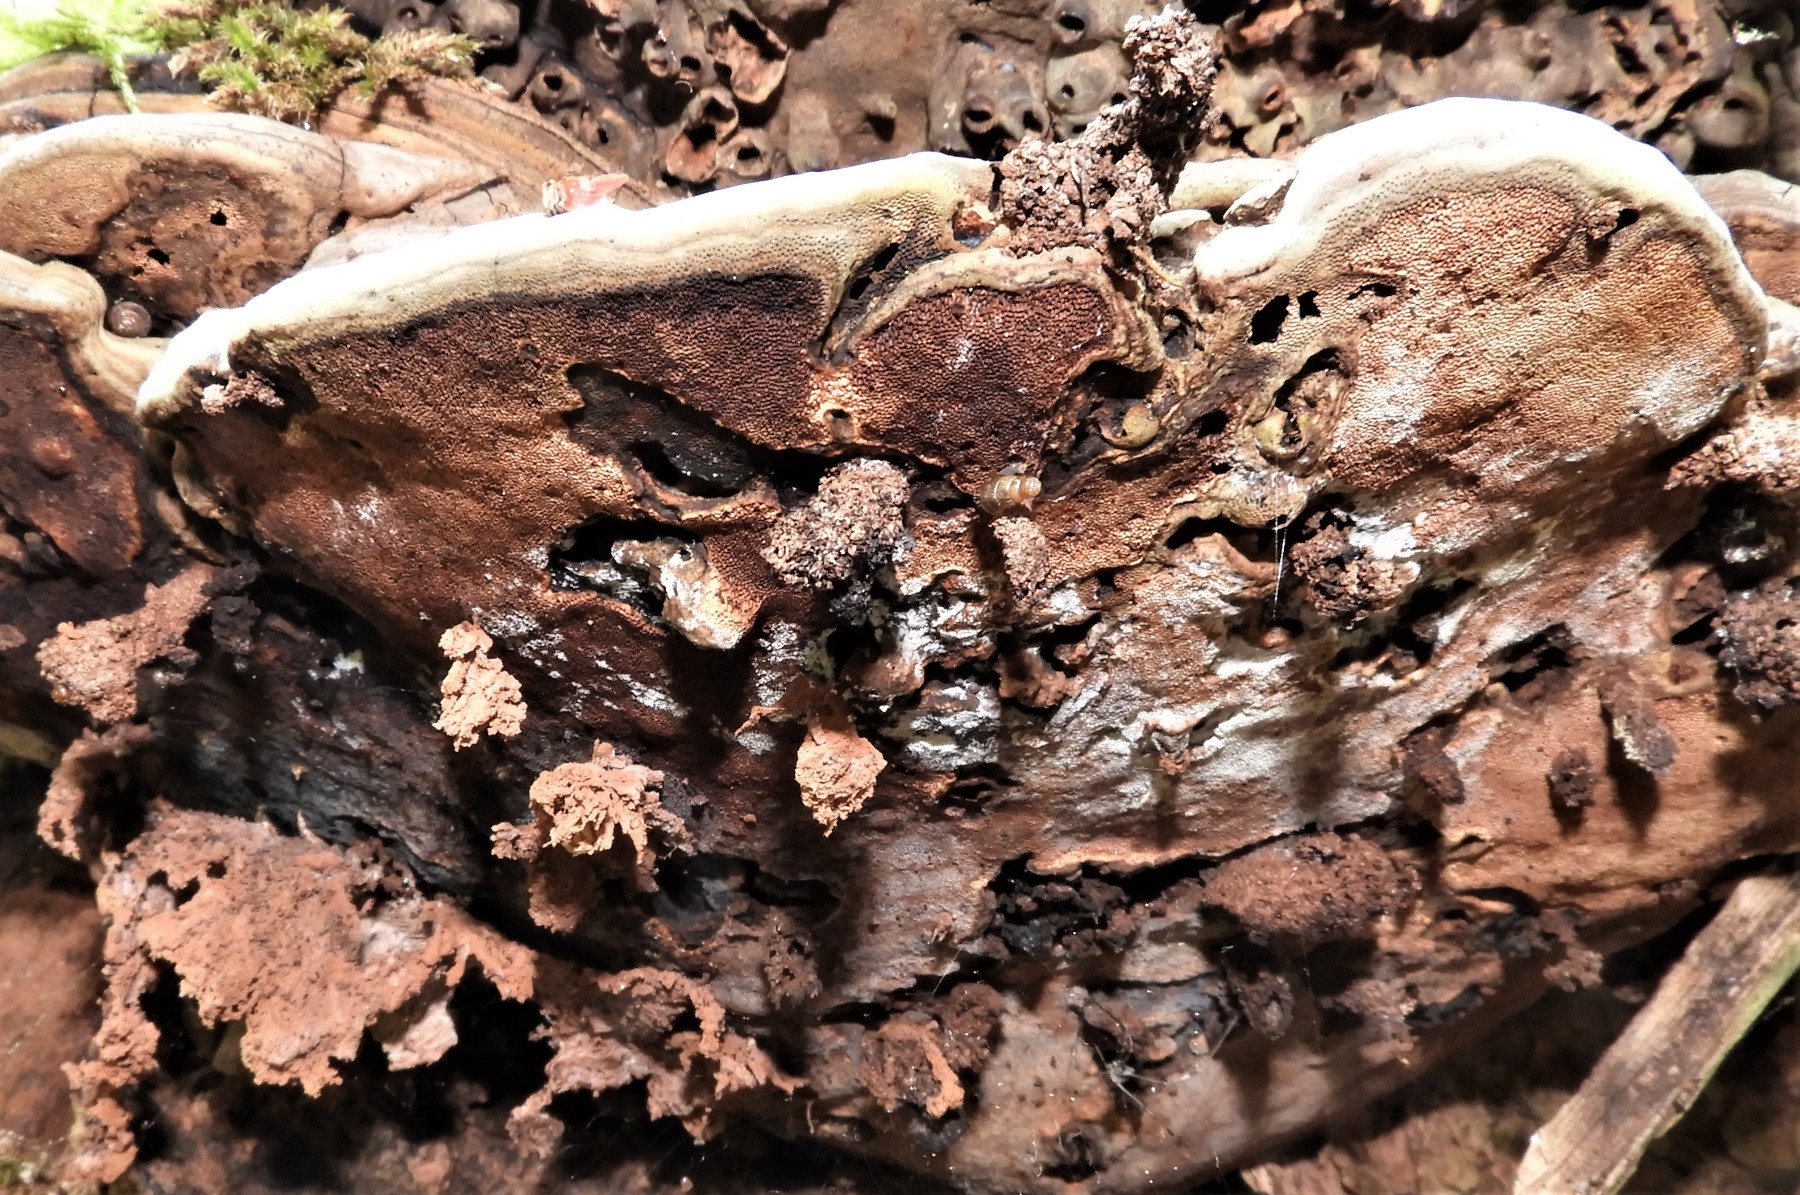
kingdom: Fungi
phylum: Basidiomycota
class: Agaricomycetes
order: Polyporales
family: Polyporaceae
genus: Ganoderma
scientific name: Ganoderma applanatum
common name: flad lakporesvamp
